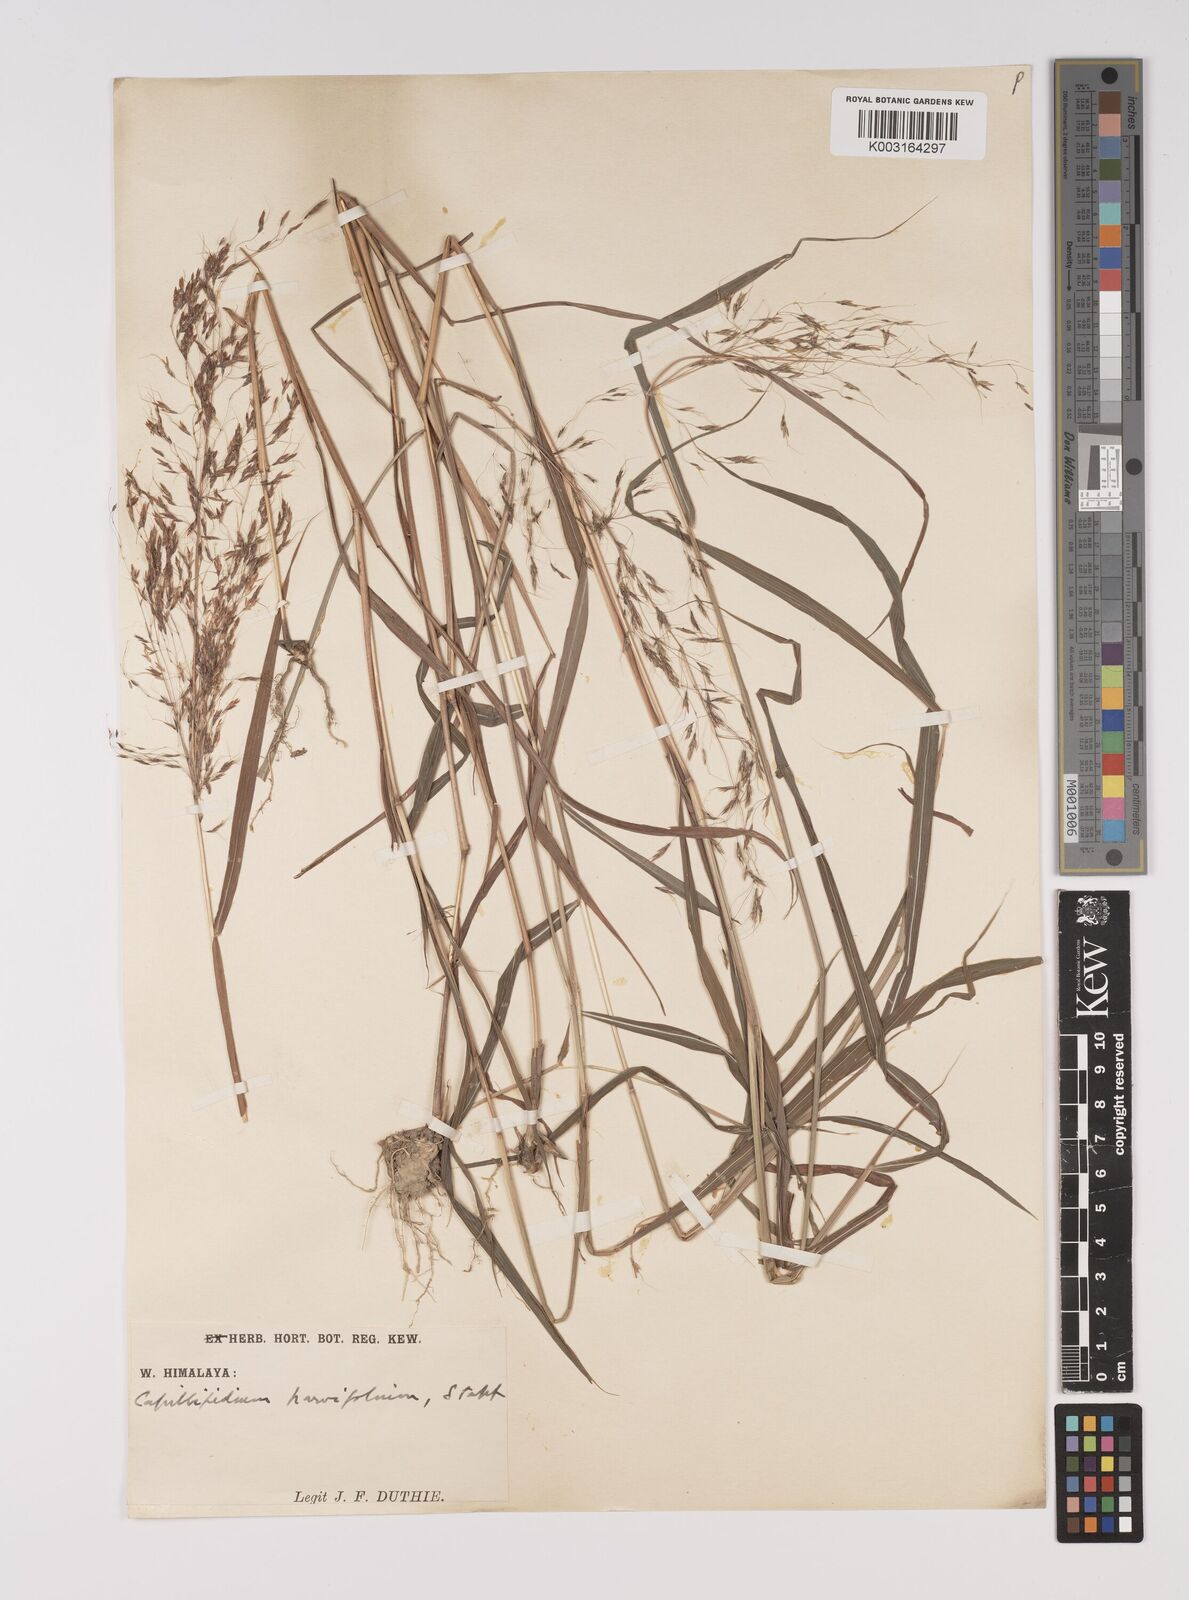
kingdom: Plantae
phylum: Tracheophyta
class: Liliopsida
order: Poales
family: Poaceae
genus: Capillipedium
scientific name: Capillipedium parviflorum
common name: Golden-beard
